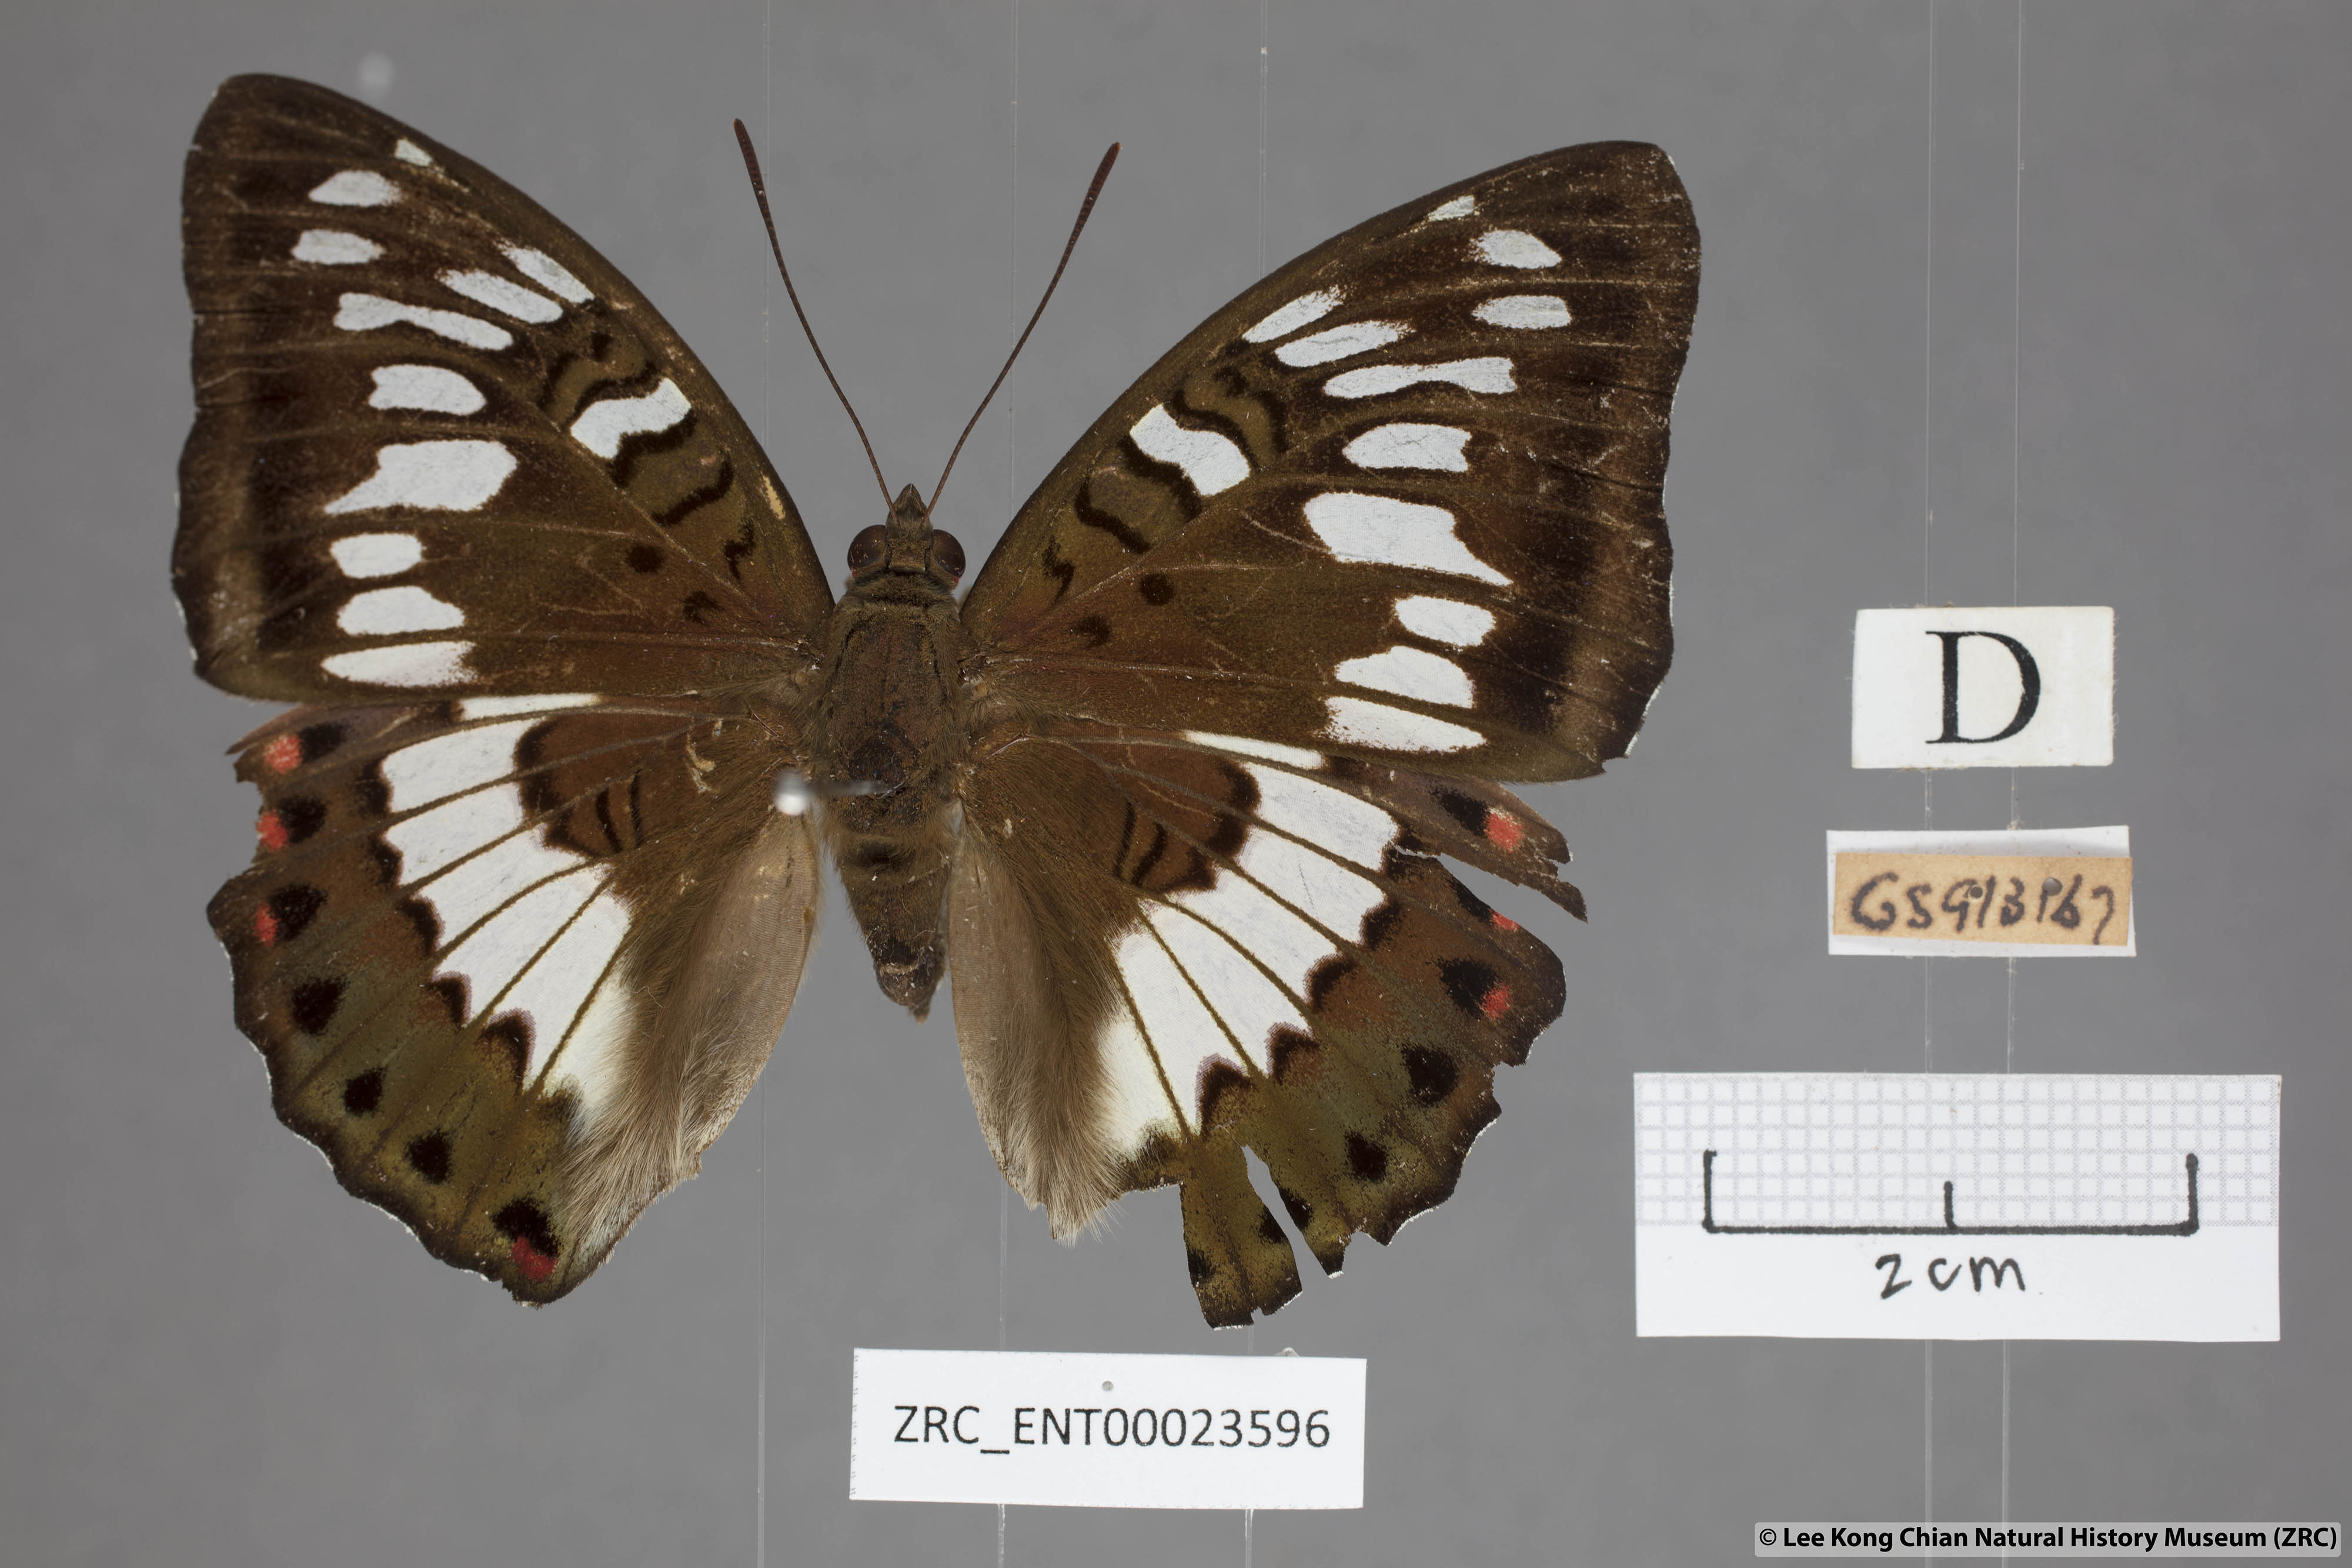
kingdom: Animalia
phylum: Arthropoda
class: Insecta
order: Lepidoptera
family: Nymphalidae
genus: Euthalia
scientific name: Euthalia adonia
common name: Green baron
